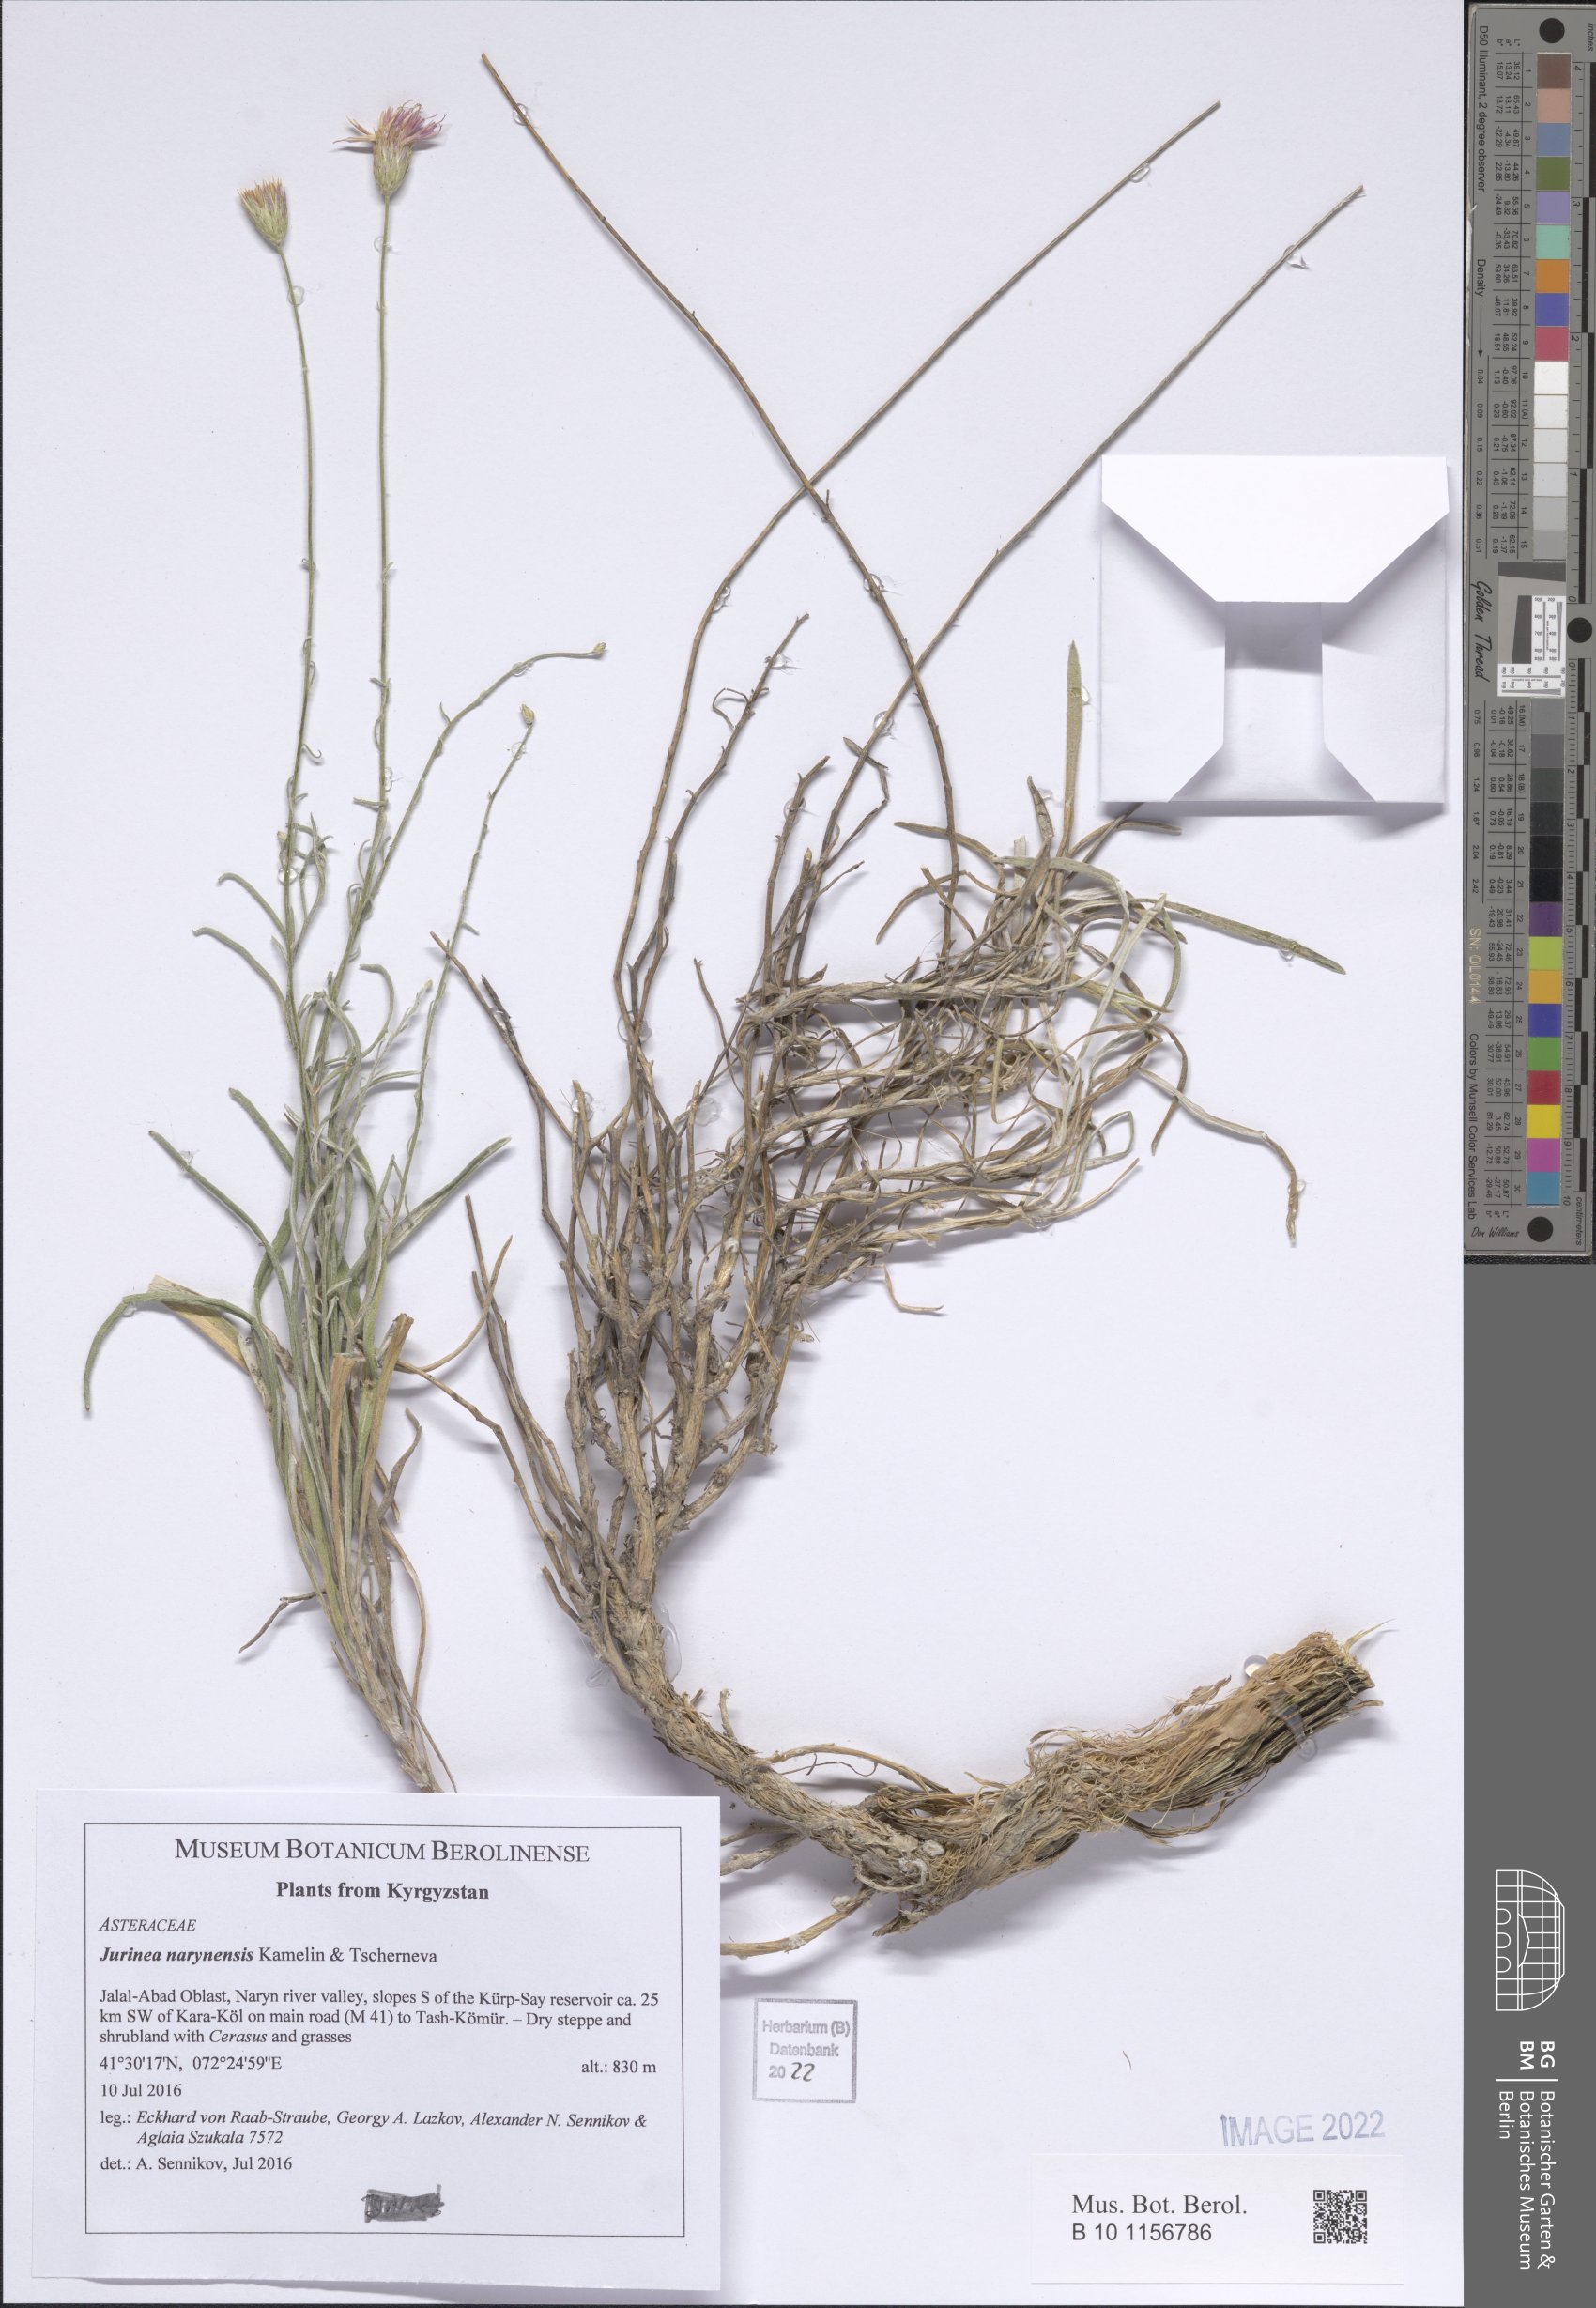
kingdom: Plantae
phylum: Tracheophyta
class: Magnoliopsida
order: Asterales
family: Asteraceae
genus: Jurinea
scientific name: Jurinea narynensis
